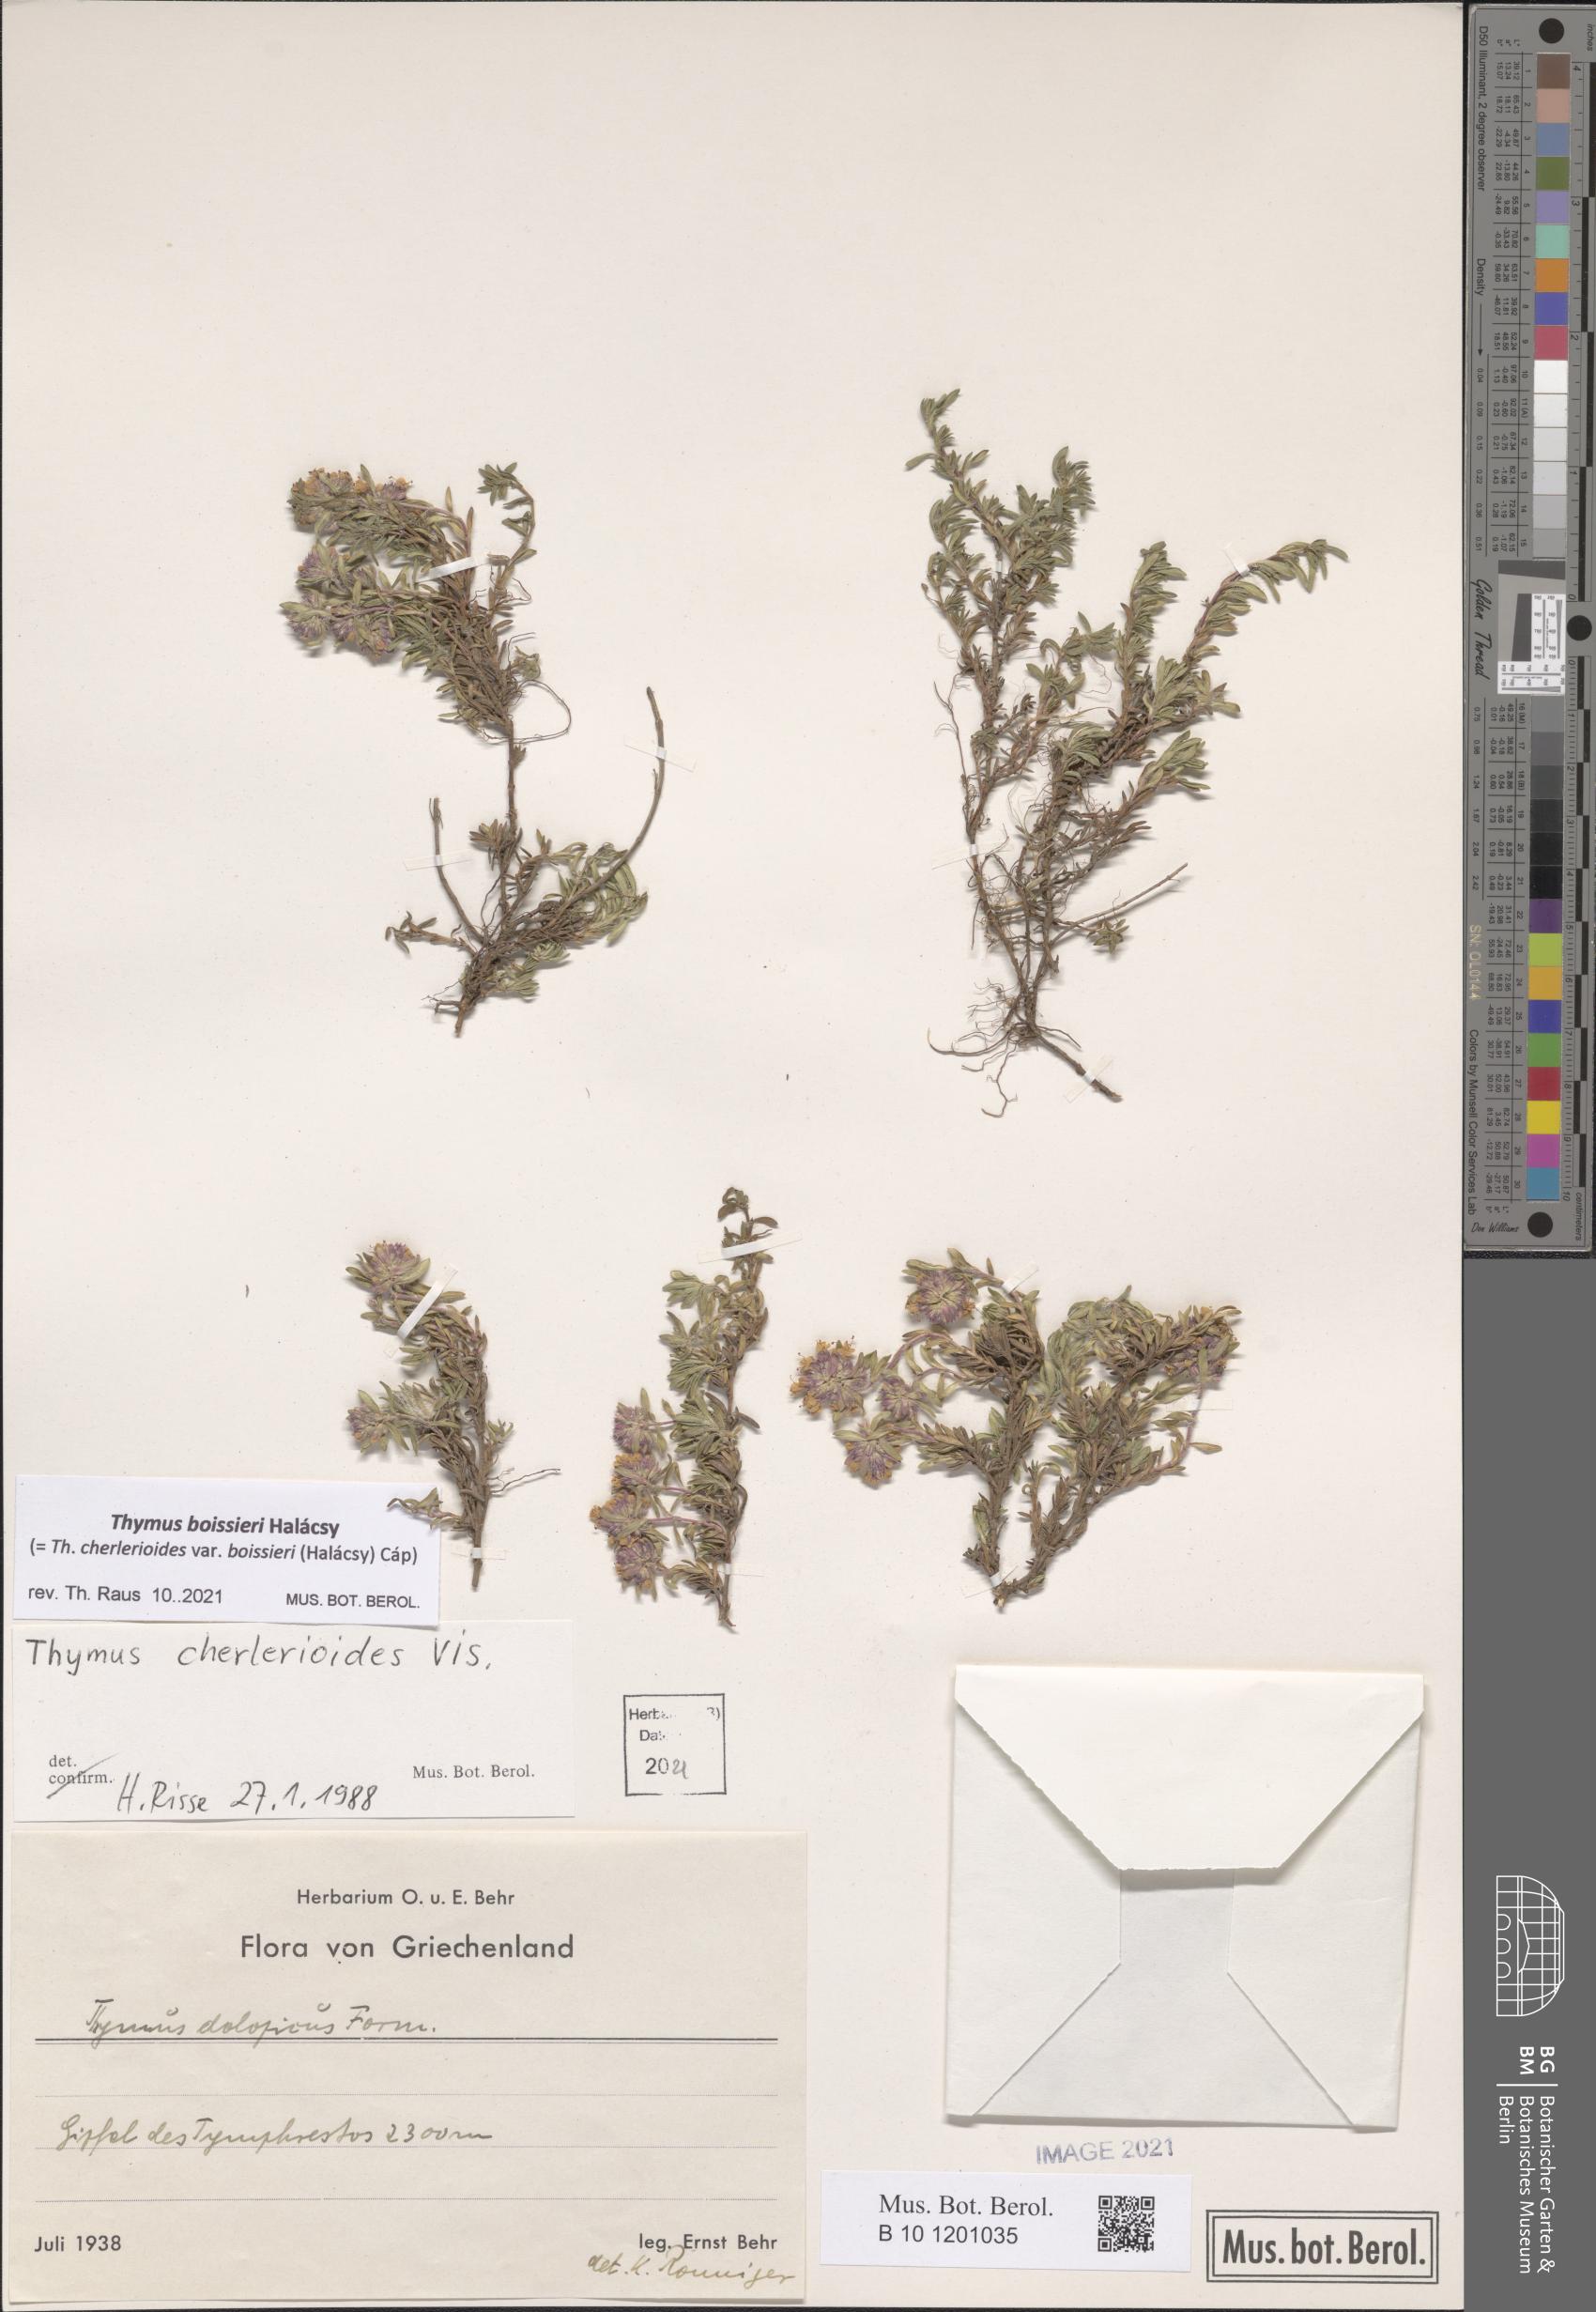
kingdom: Plantae
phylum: Tracheophyta
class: Magnoliopsida
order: Lamiales
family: Lamiaceae
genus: Thymus
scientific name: Thymus boissieri
